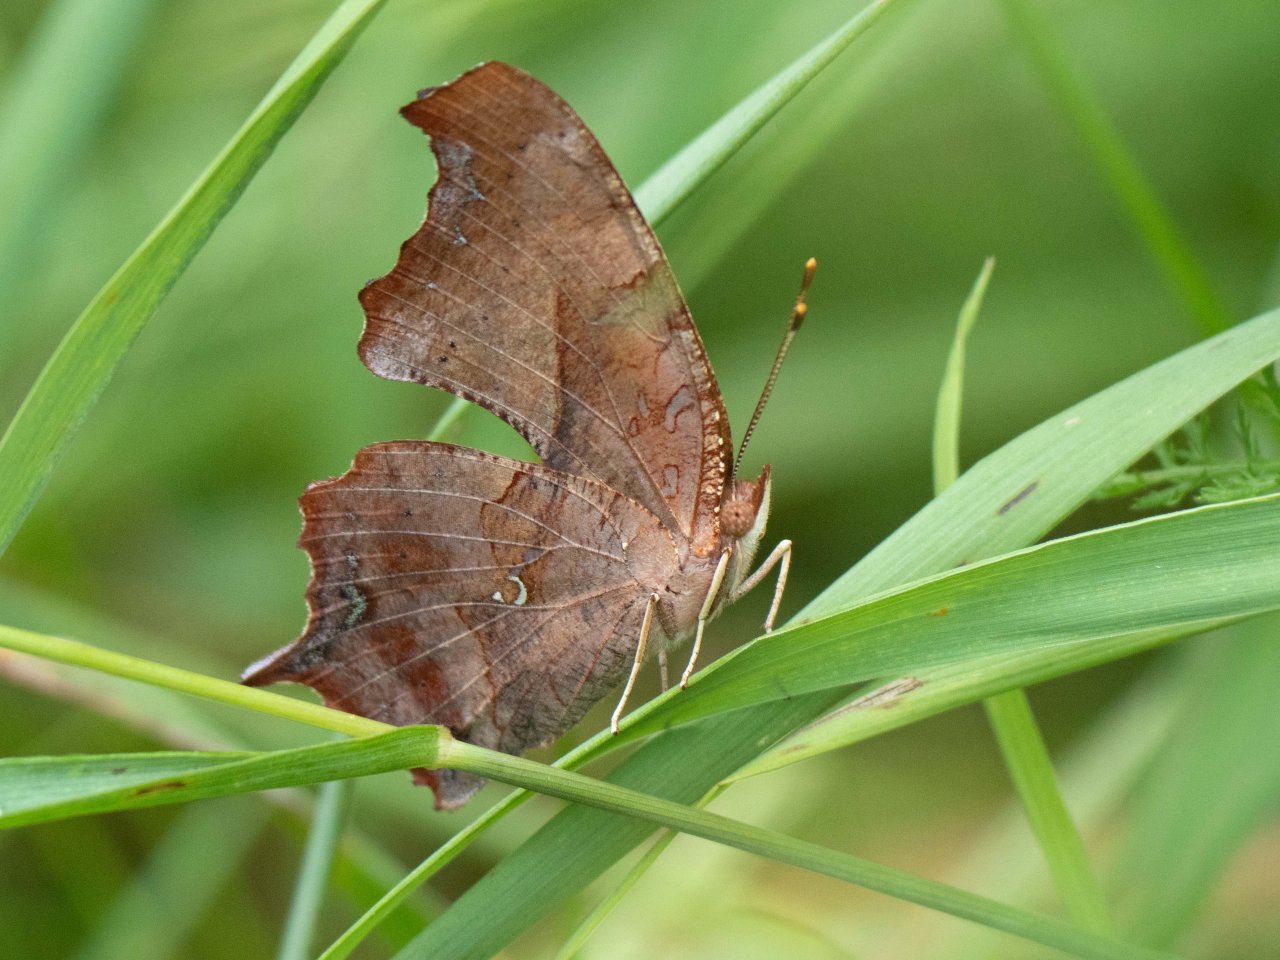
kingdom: Animalia
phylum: Arthropoda
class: Insecta
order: Lepidoptera
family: Nymphalidae
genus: Polygonia
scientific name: Polygonia interrogationis
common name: Question Mark
